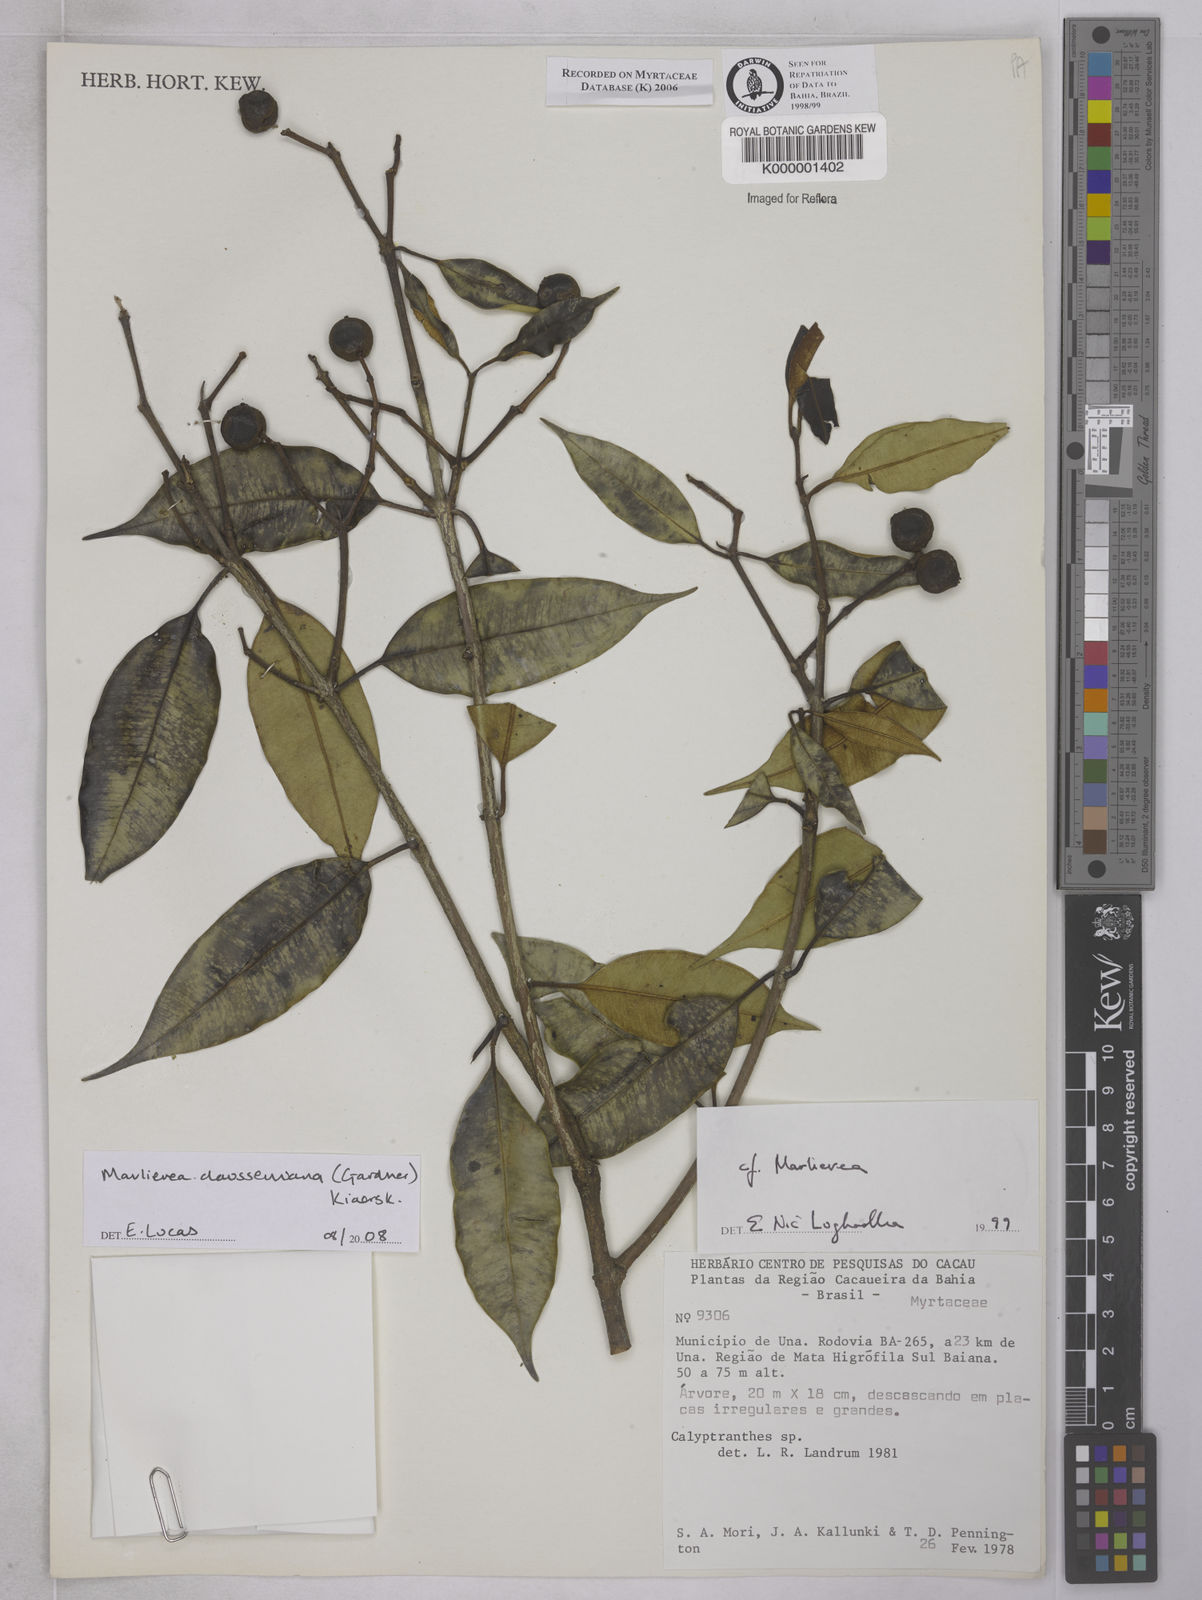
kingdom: Plantae
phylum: Tracheophyta
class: Magnoliopsida
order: Myrtales
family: Myrtaceae
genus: Calyptranthes
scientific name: Calyptranthes
